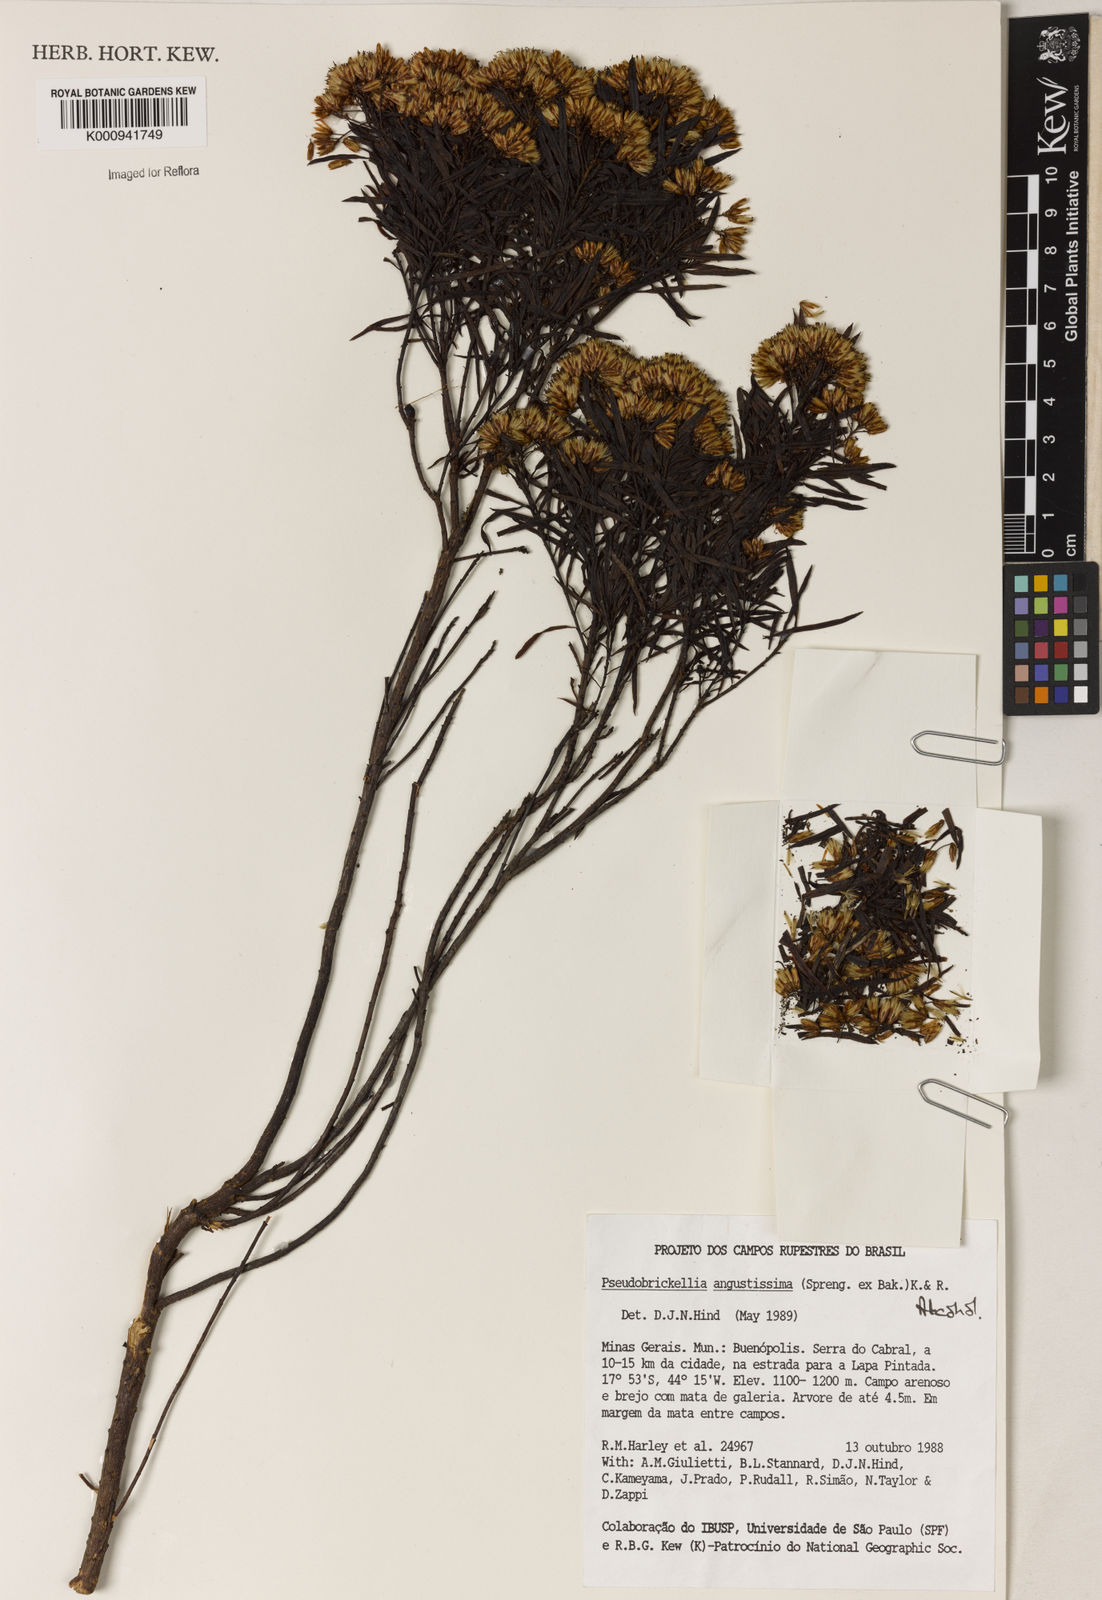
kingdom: Plantae
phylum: Tracheophyta
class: Magnoliopsida
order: Asterales
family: Asteraceae
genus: Pseudobrickellia
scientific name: Pseudobrickellia angustissima
